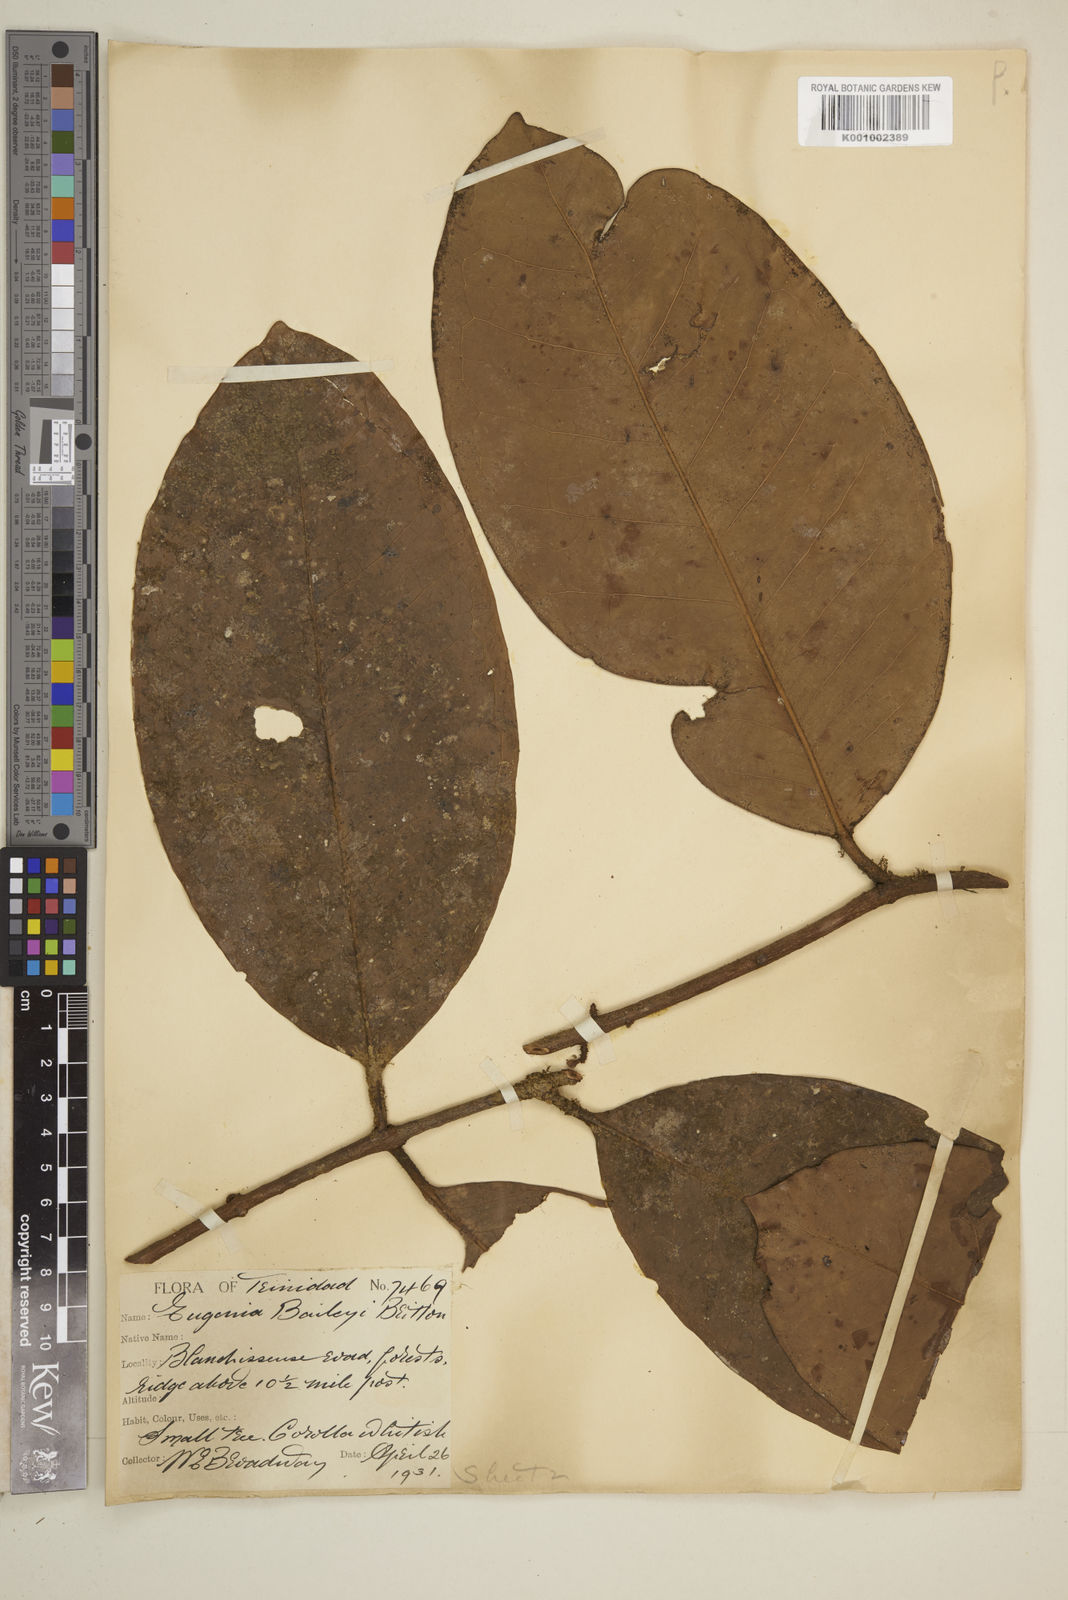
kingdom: Plantae
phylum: Tracheophyta
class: Magnoliopsida
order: Myrtales
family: Myrtaceae
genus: Eugenia
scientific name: Eugenia baileyi
